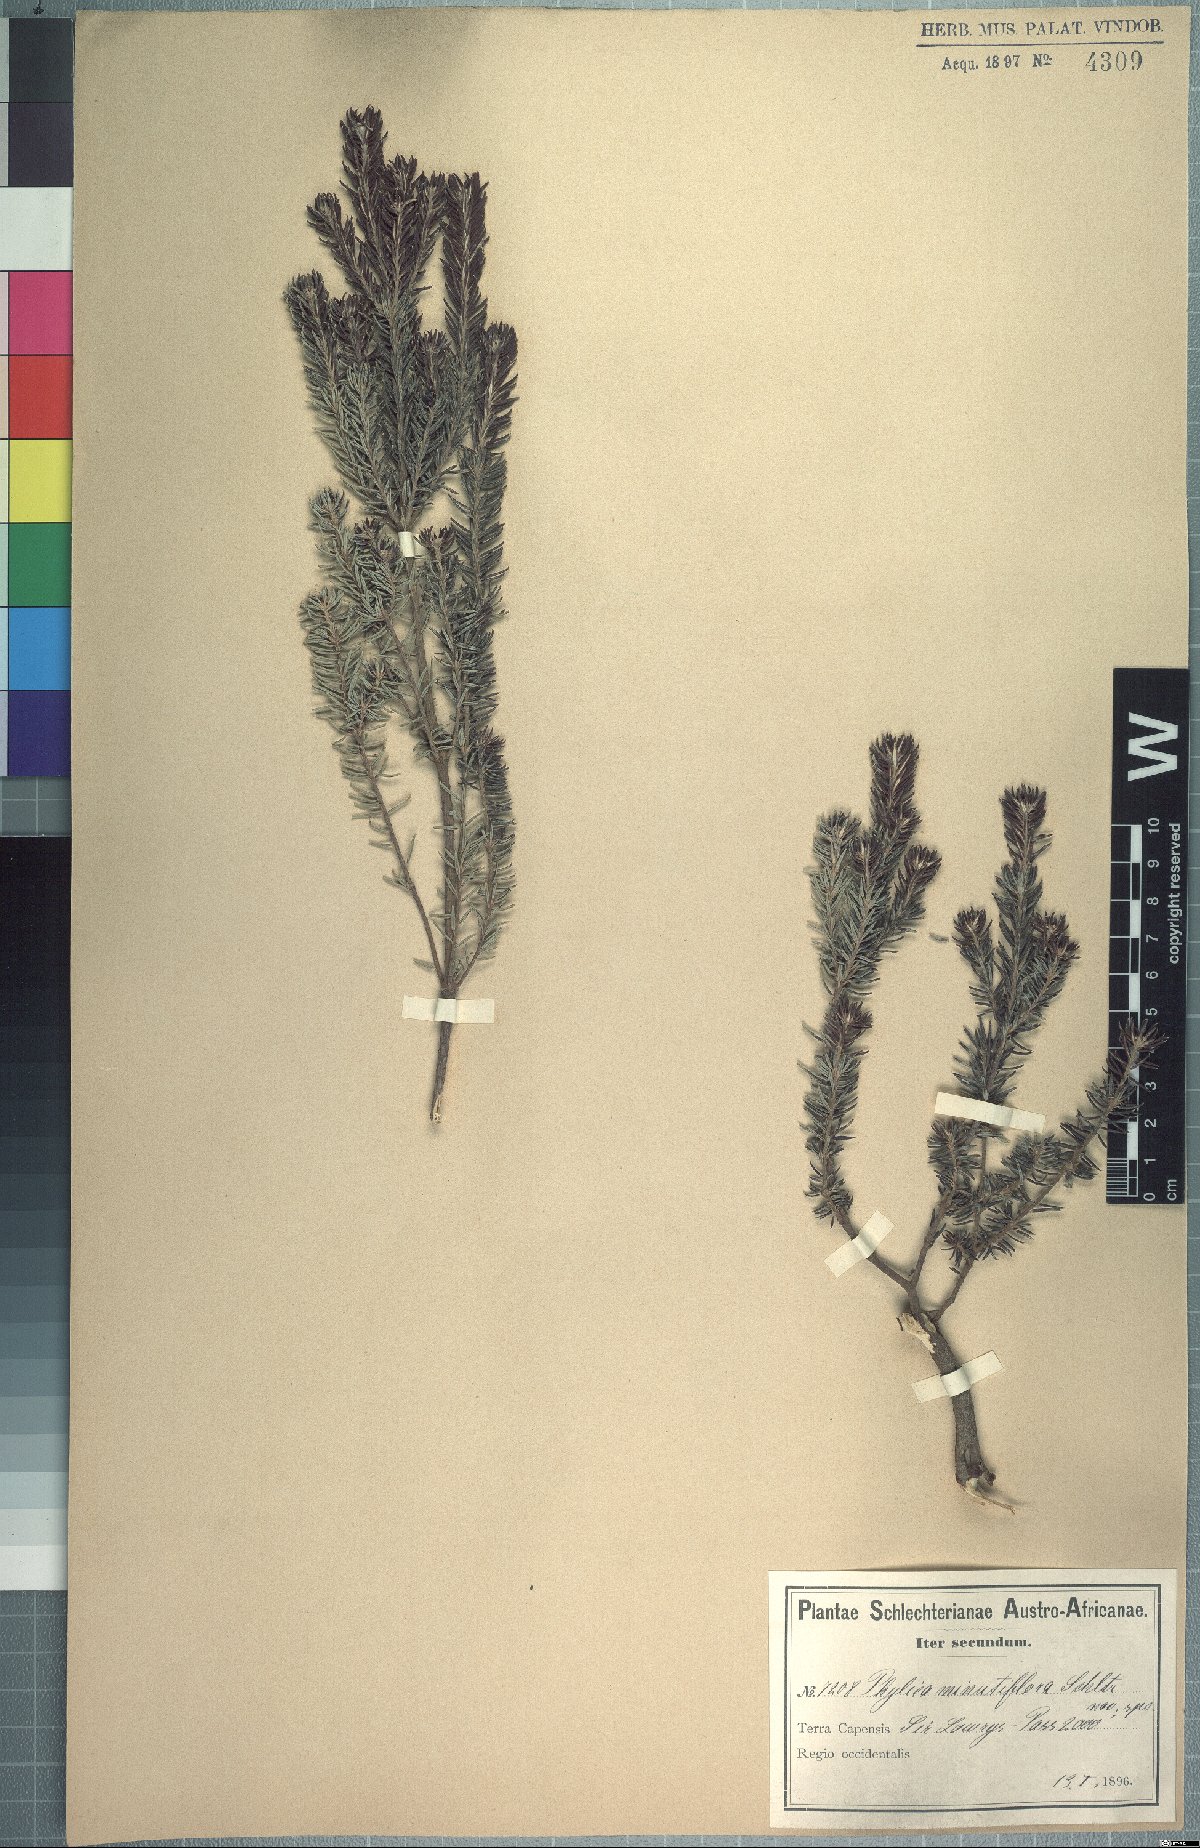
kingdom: Plantae
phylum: Tracheophyta
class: Magnoliopsida
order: Rosales
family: Rhamnaceae
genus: Phylica
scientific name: Phylica minutiflora
